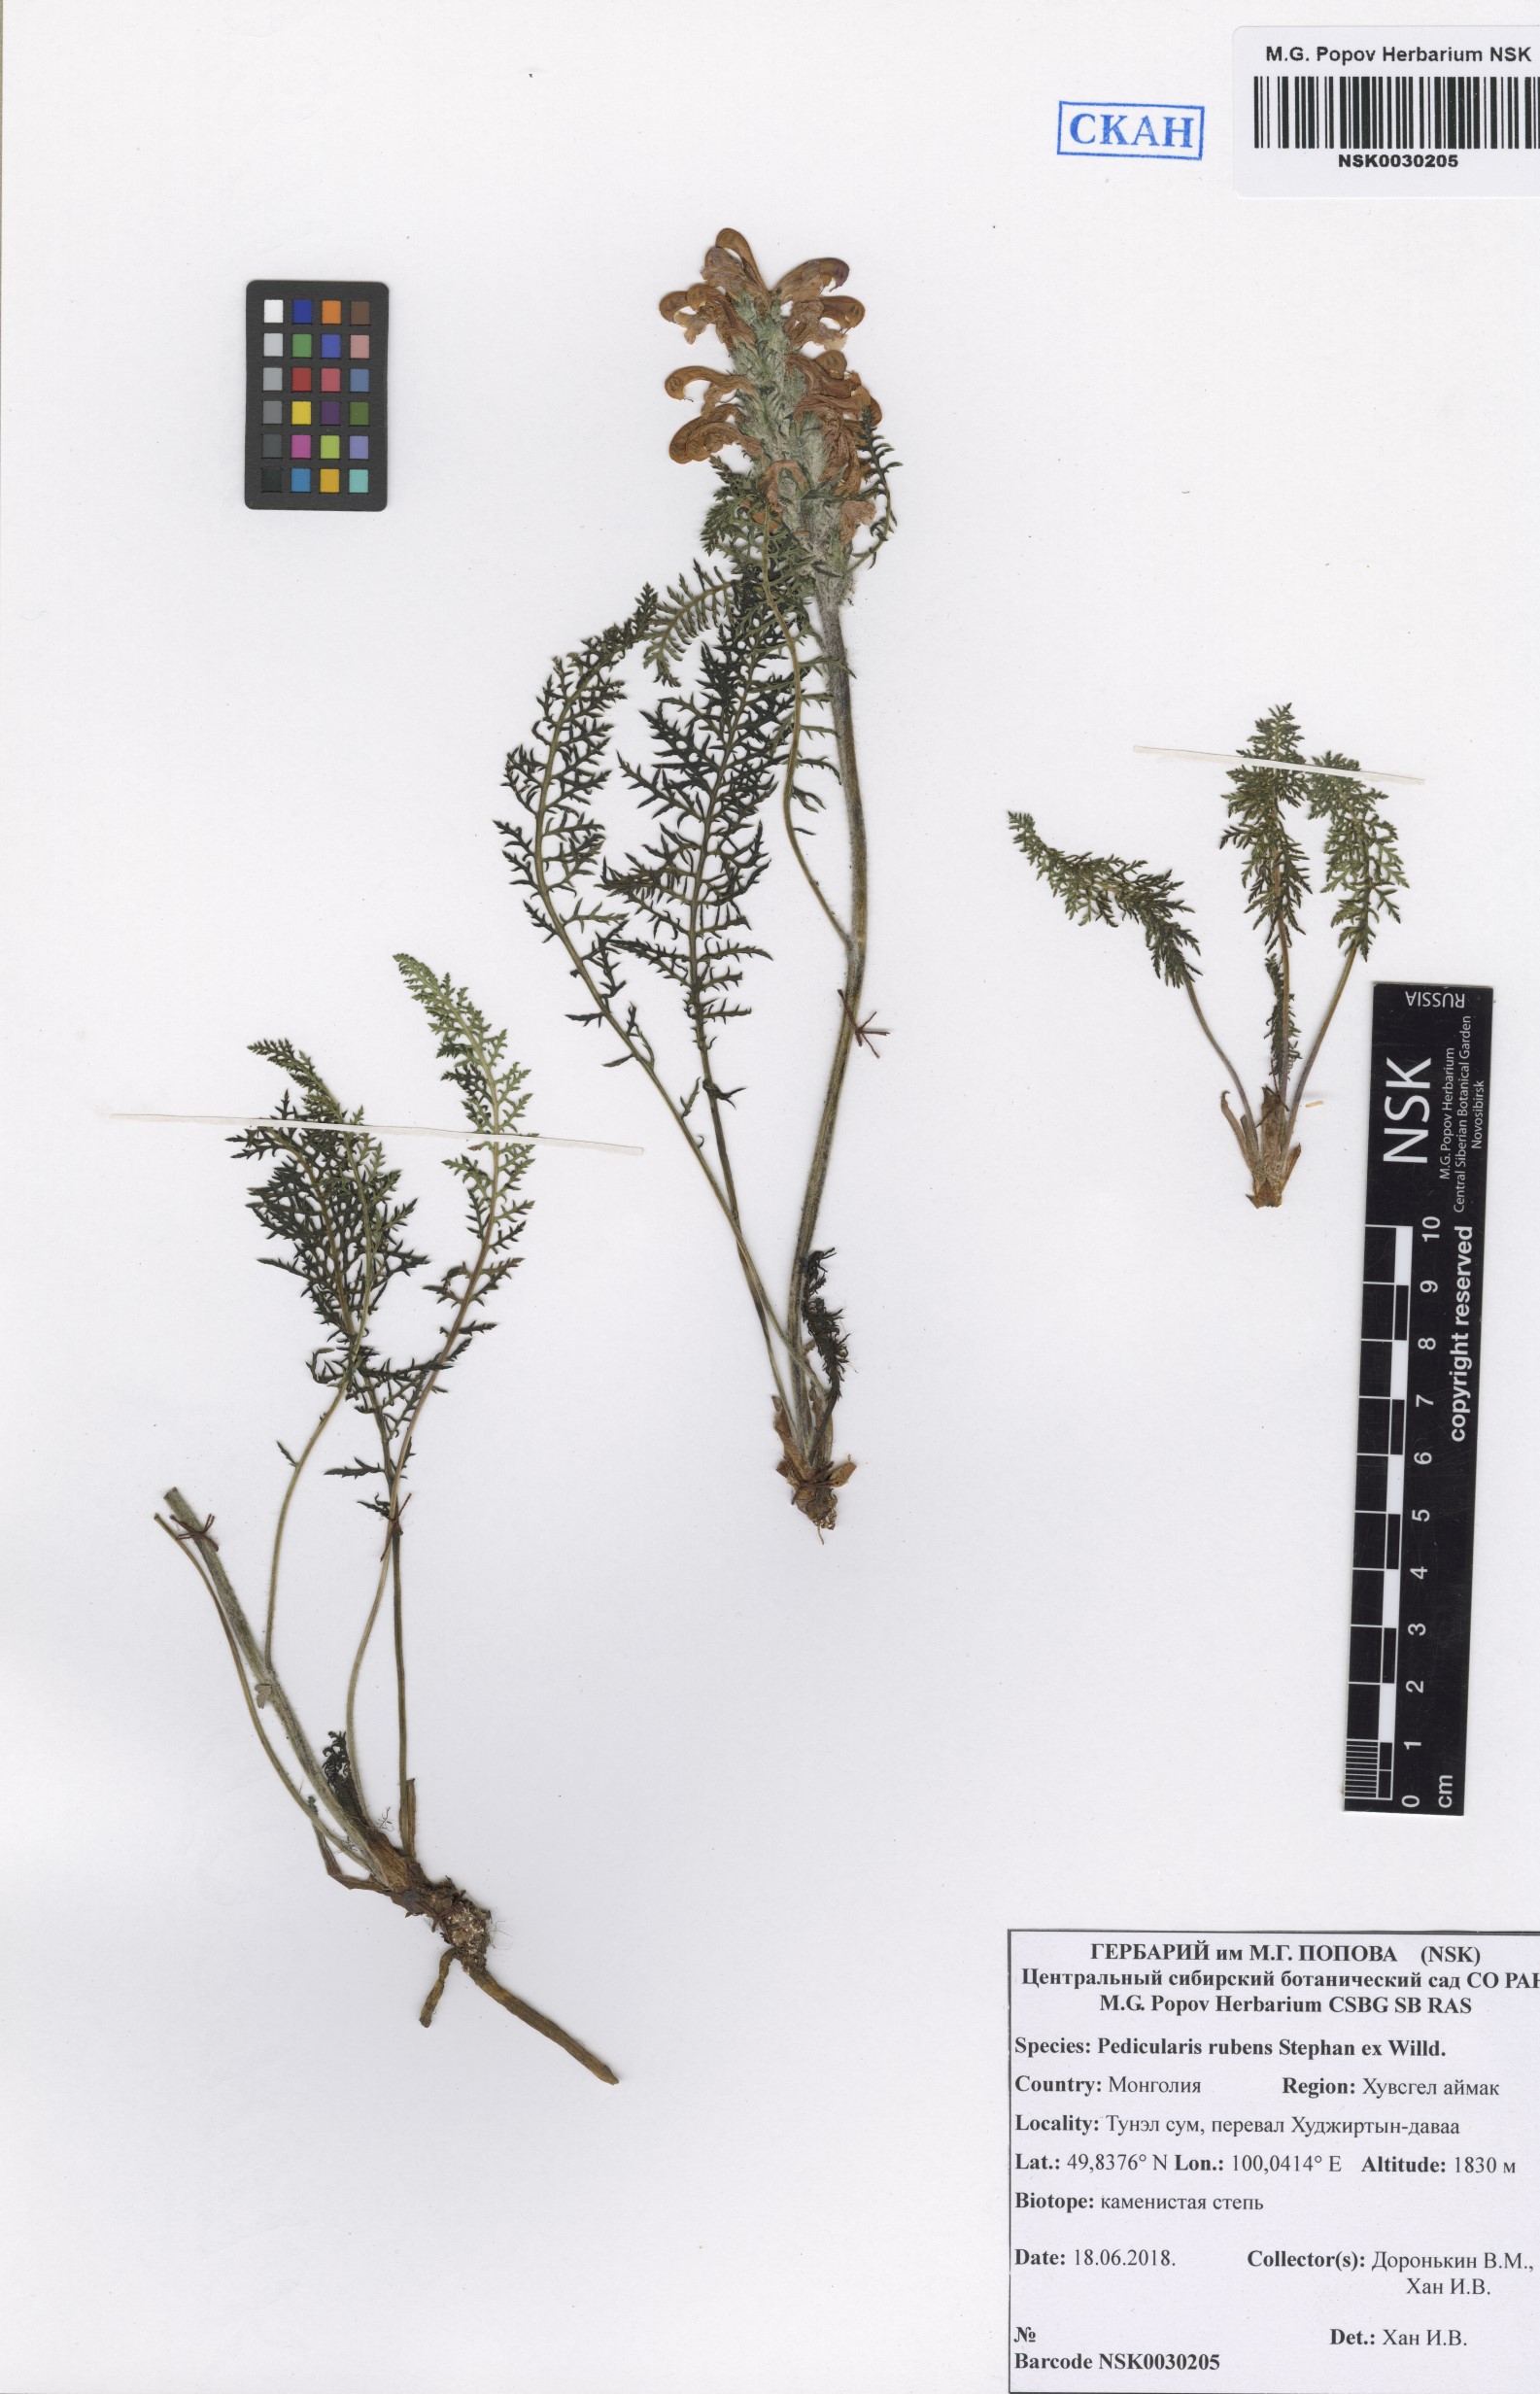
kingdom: Plantae
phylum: Tracheophyta
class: Magnoliopsida
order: Lamiales
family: Orobanchaceae
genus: Pedicularis
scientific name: Pedicularis rubens
